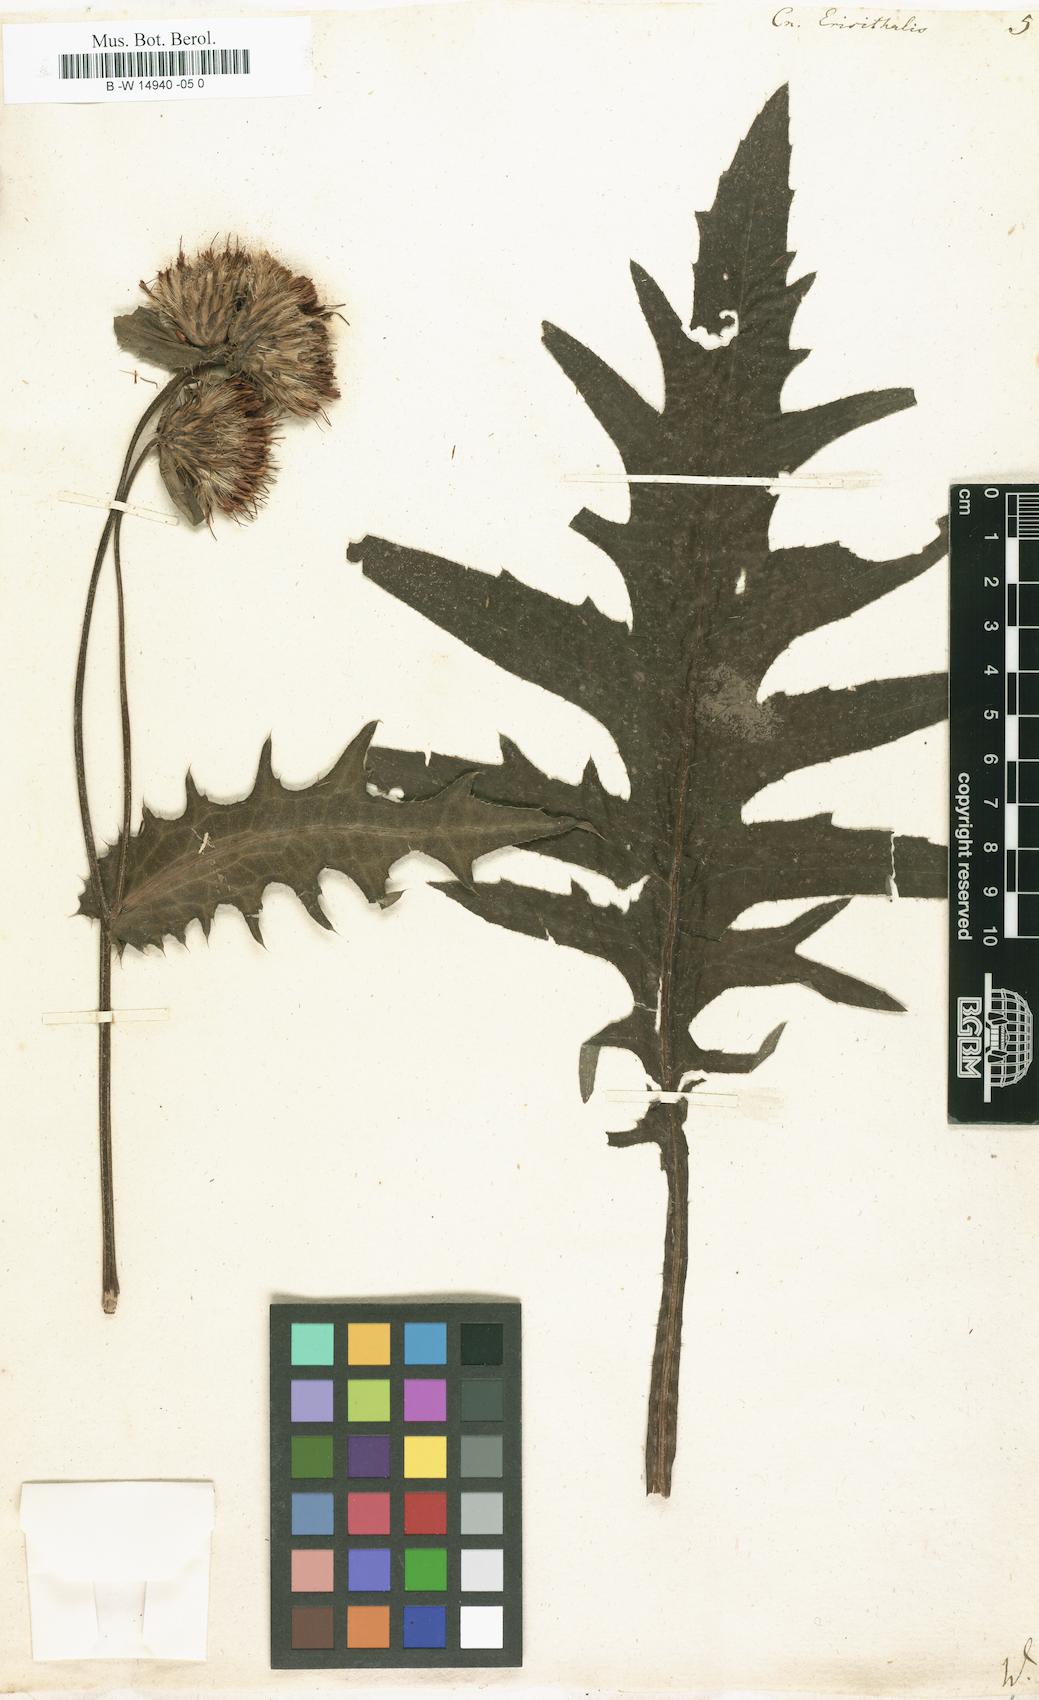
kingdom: Plantae
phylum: Tracheophyta
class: Magnoliopsida
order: Asterales
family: Asteraceae
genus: Cirsium
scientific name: Cirsium erisithales
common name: Yellow thistle
